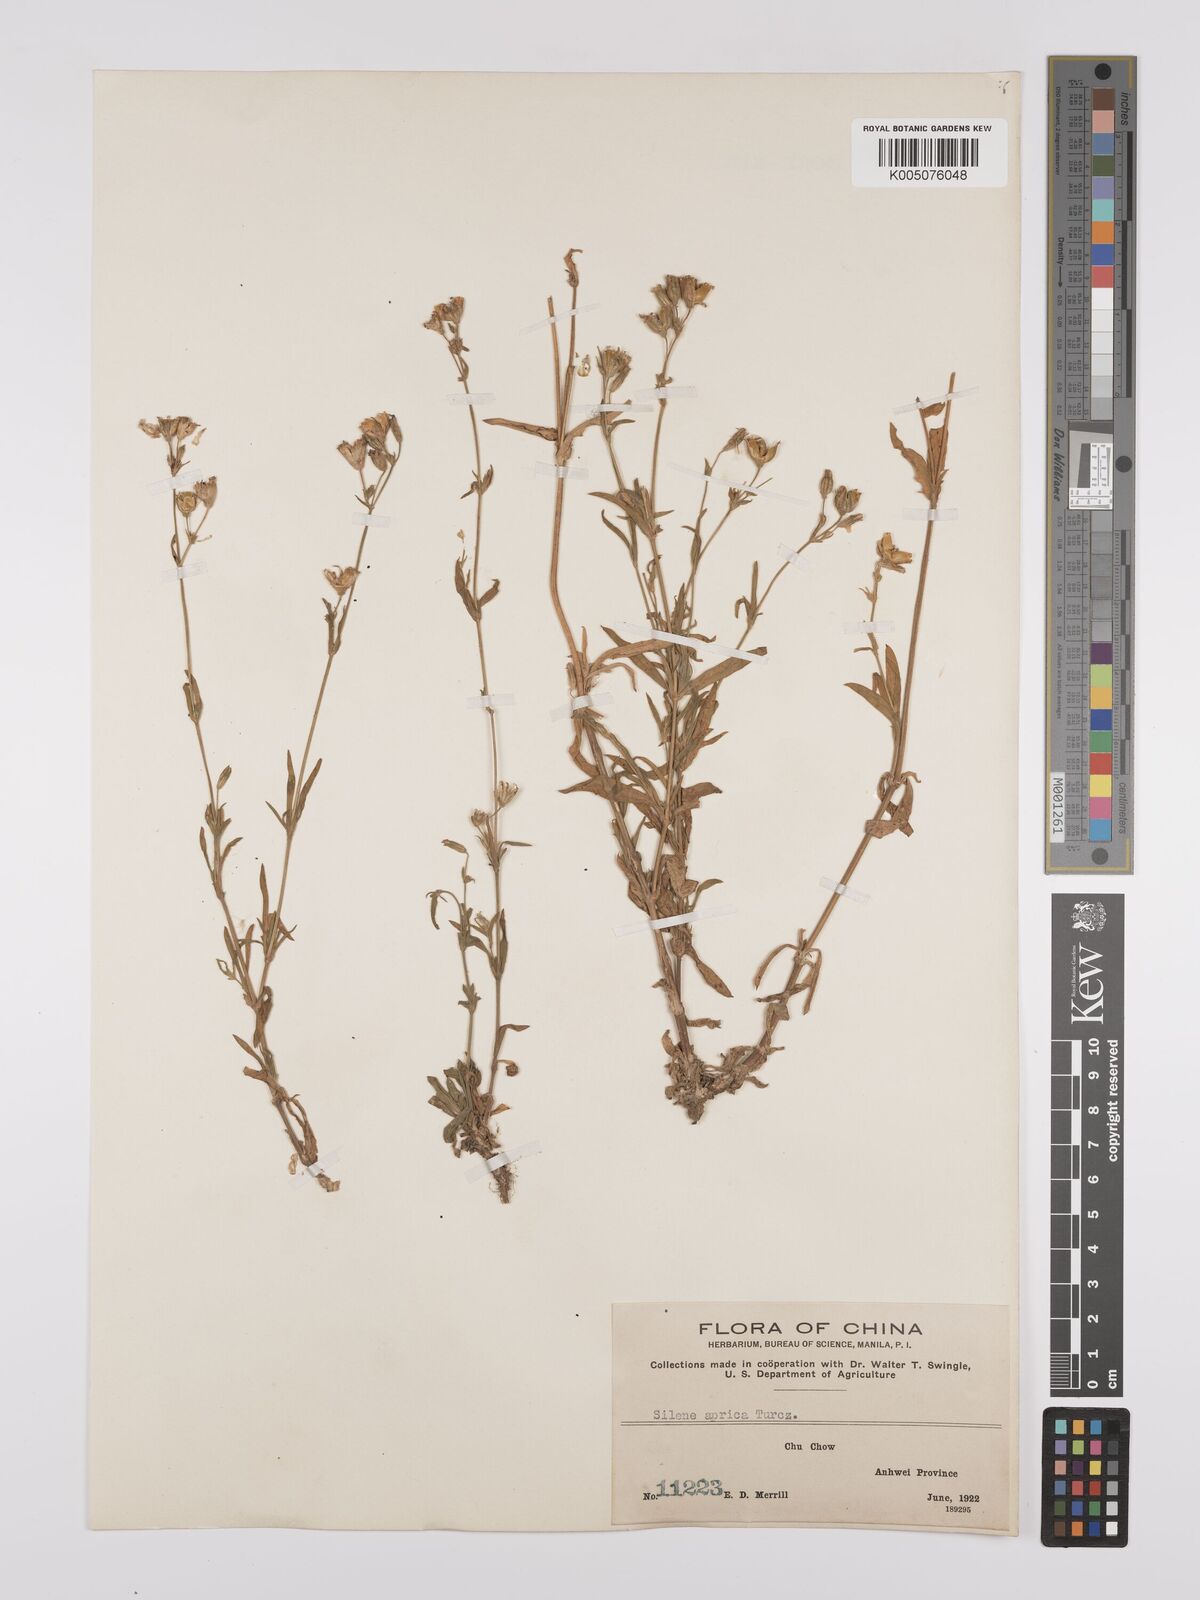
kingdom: Plantae
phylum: Tracheophyta
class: Magnoliopsida
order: Caryophyllales
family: Caryophyllaceae
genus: Silene
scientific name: Silene aprica
